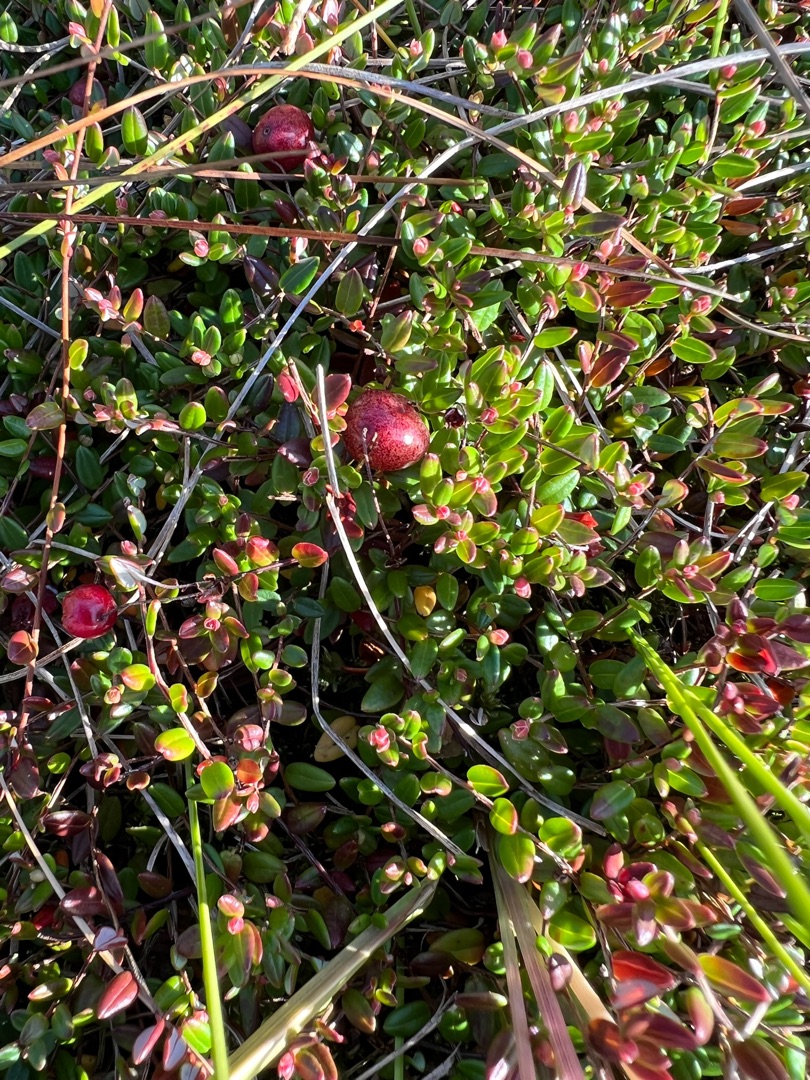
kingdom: Plantae
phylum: Tracheophyta
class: Magnoliopsida
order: Ericales
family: Ericaceae
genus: Vaccinium
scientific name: Vaccinium oxycoccos
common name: Tranebær
